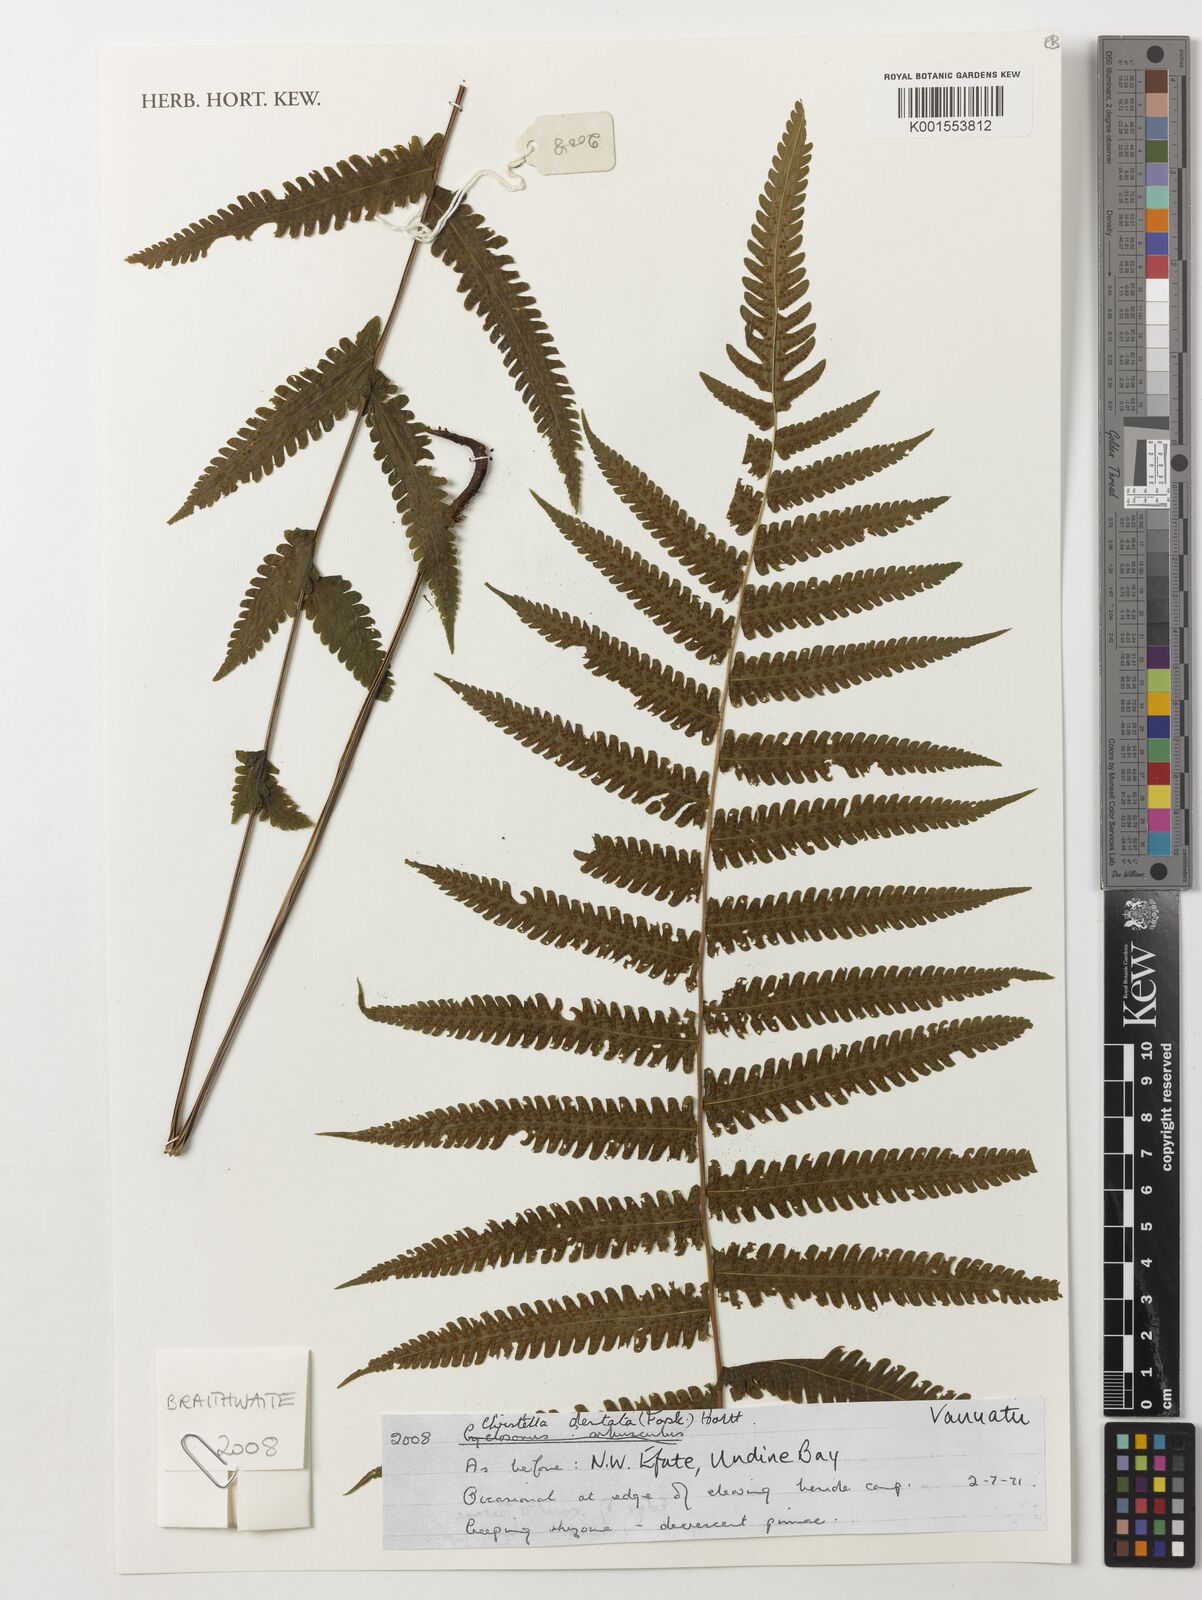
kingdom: Plantae
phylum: Tracheophyta
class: Polypodiopsida
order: Polypodiales
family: Thelypteridaceae
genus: Christella
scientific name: Christella dentata
